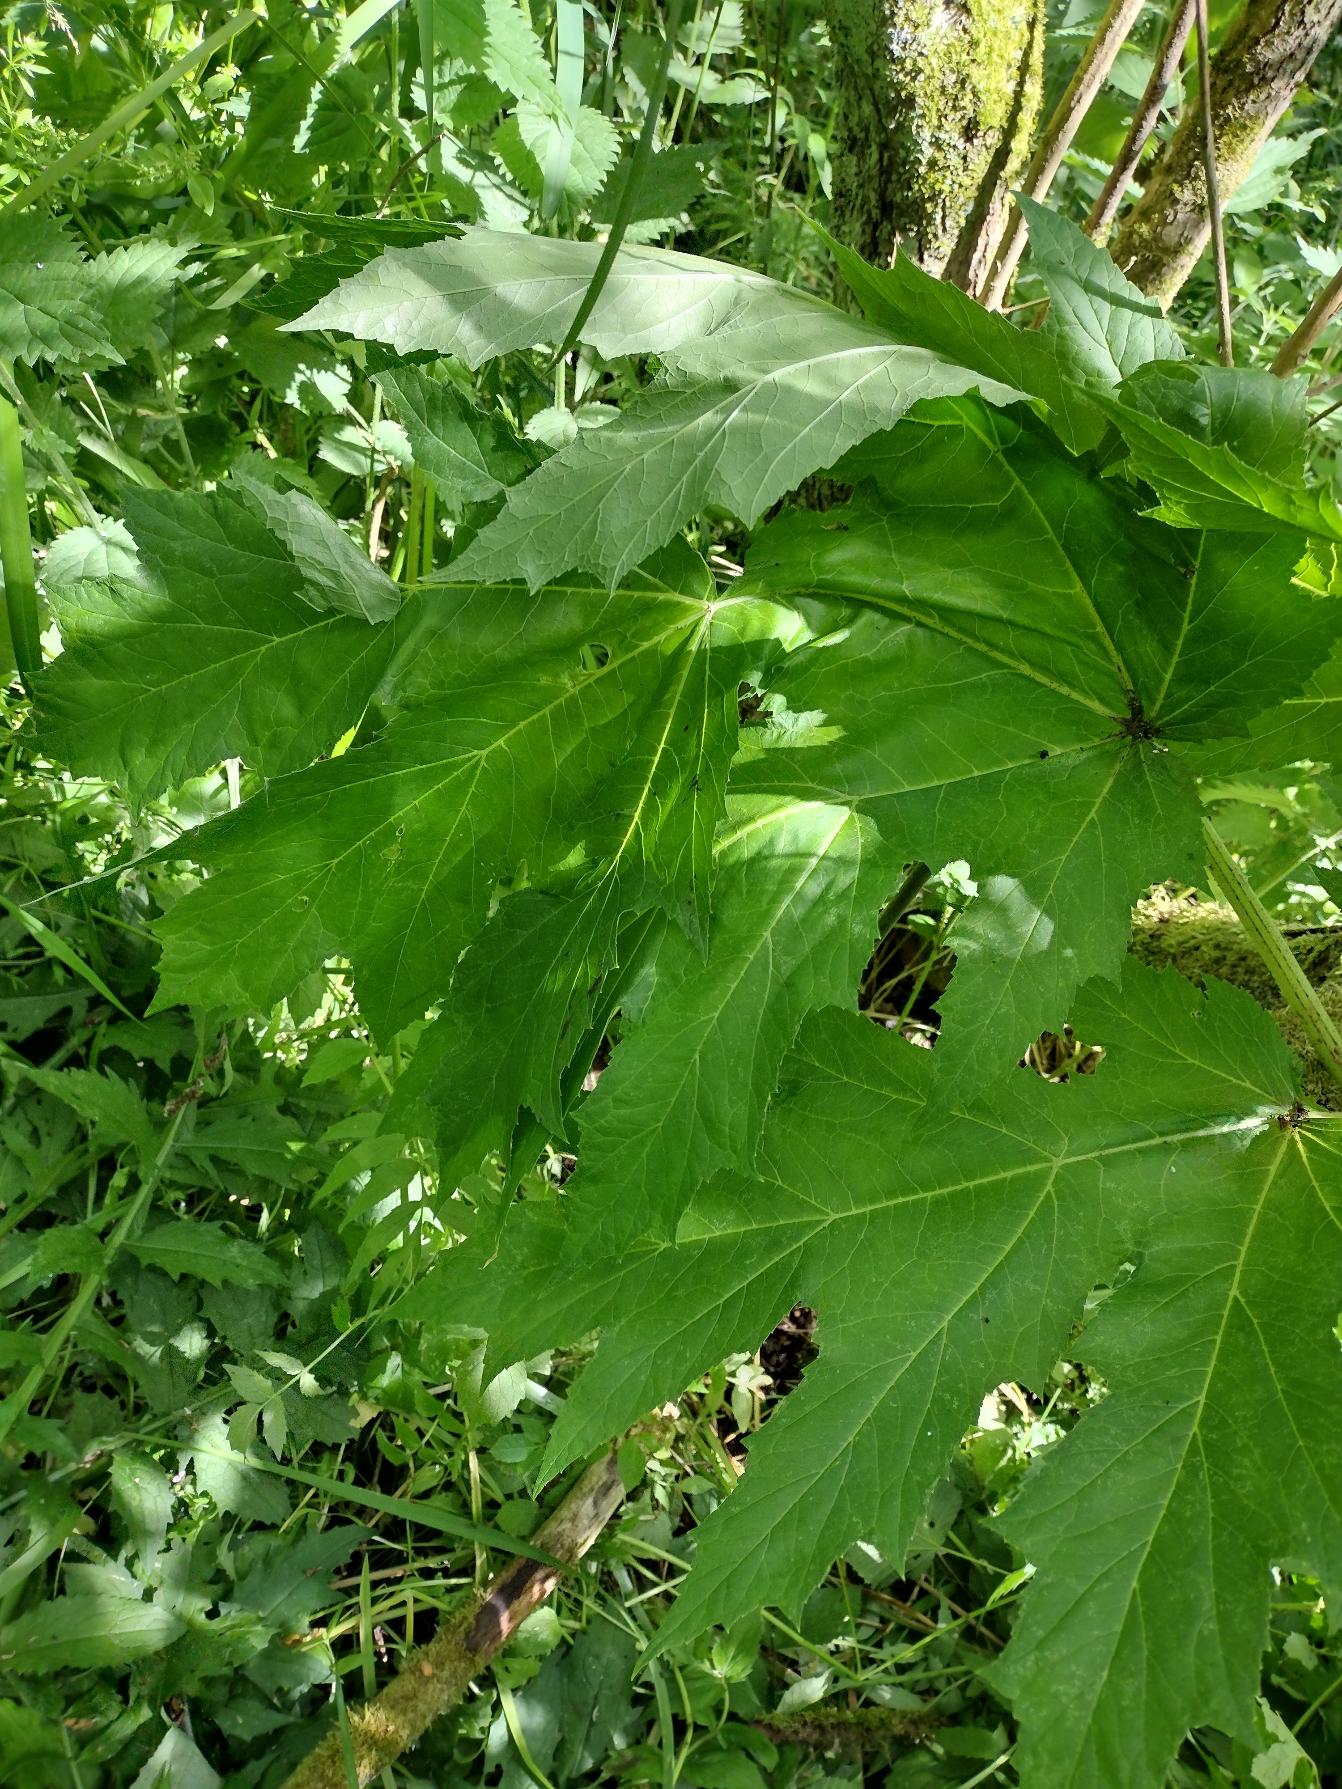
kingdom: Plantae
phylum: Tracheophyta
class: Magnoliopsida
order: Apiales
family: Apiaceae
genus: Heracleum
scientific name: Heracleum mantegazzianum
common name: Kæmpe-bjørneklo
